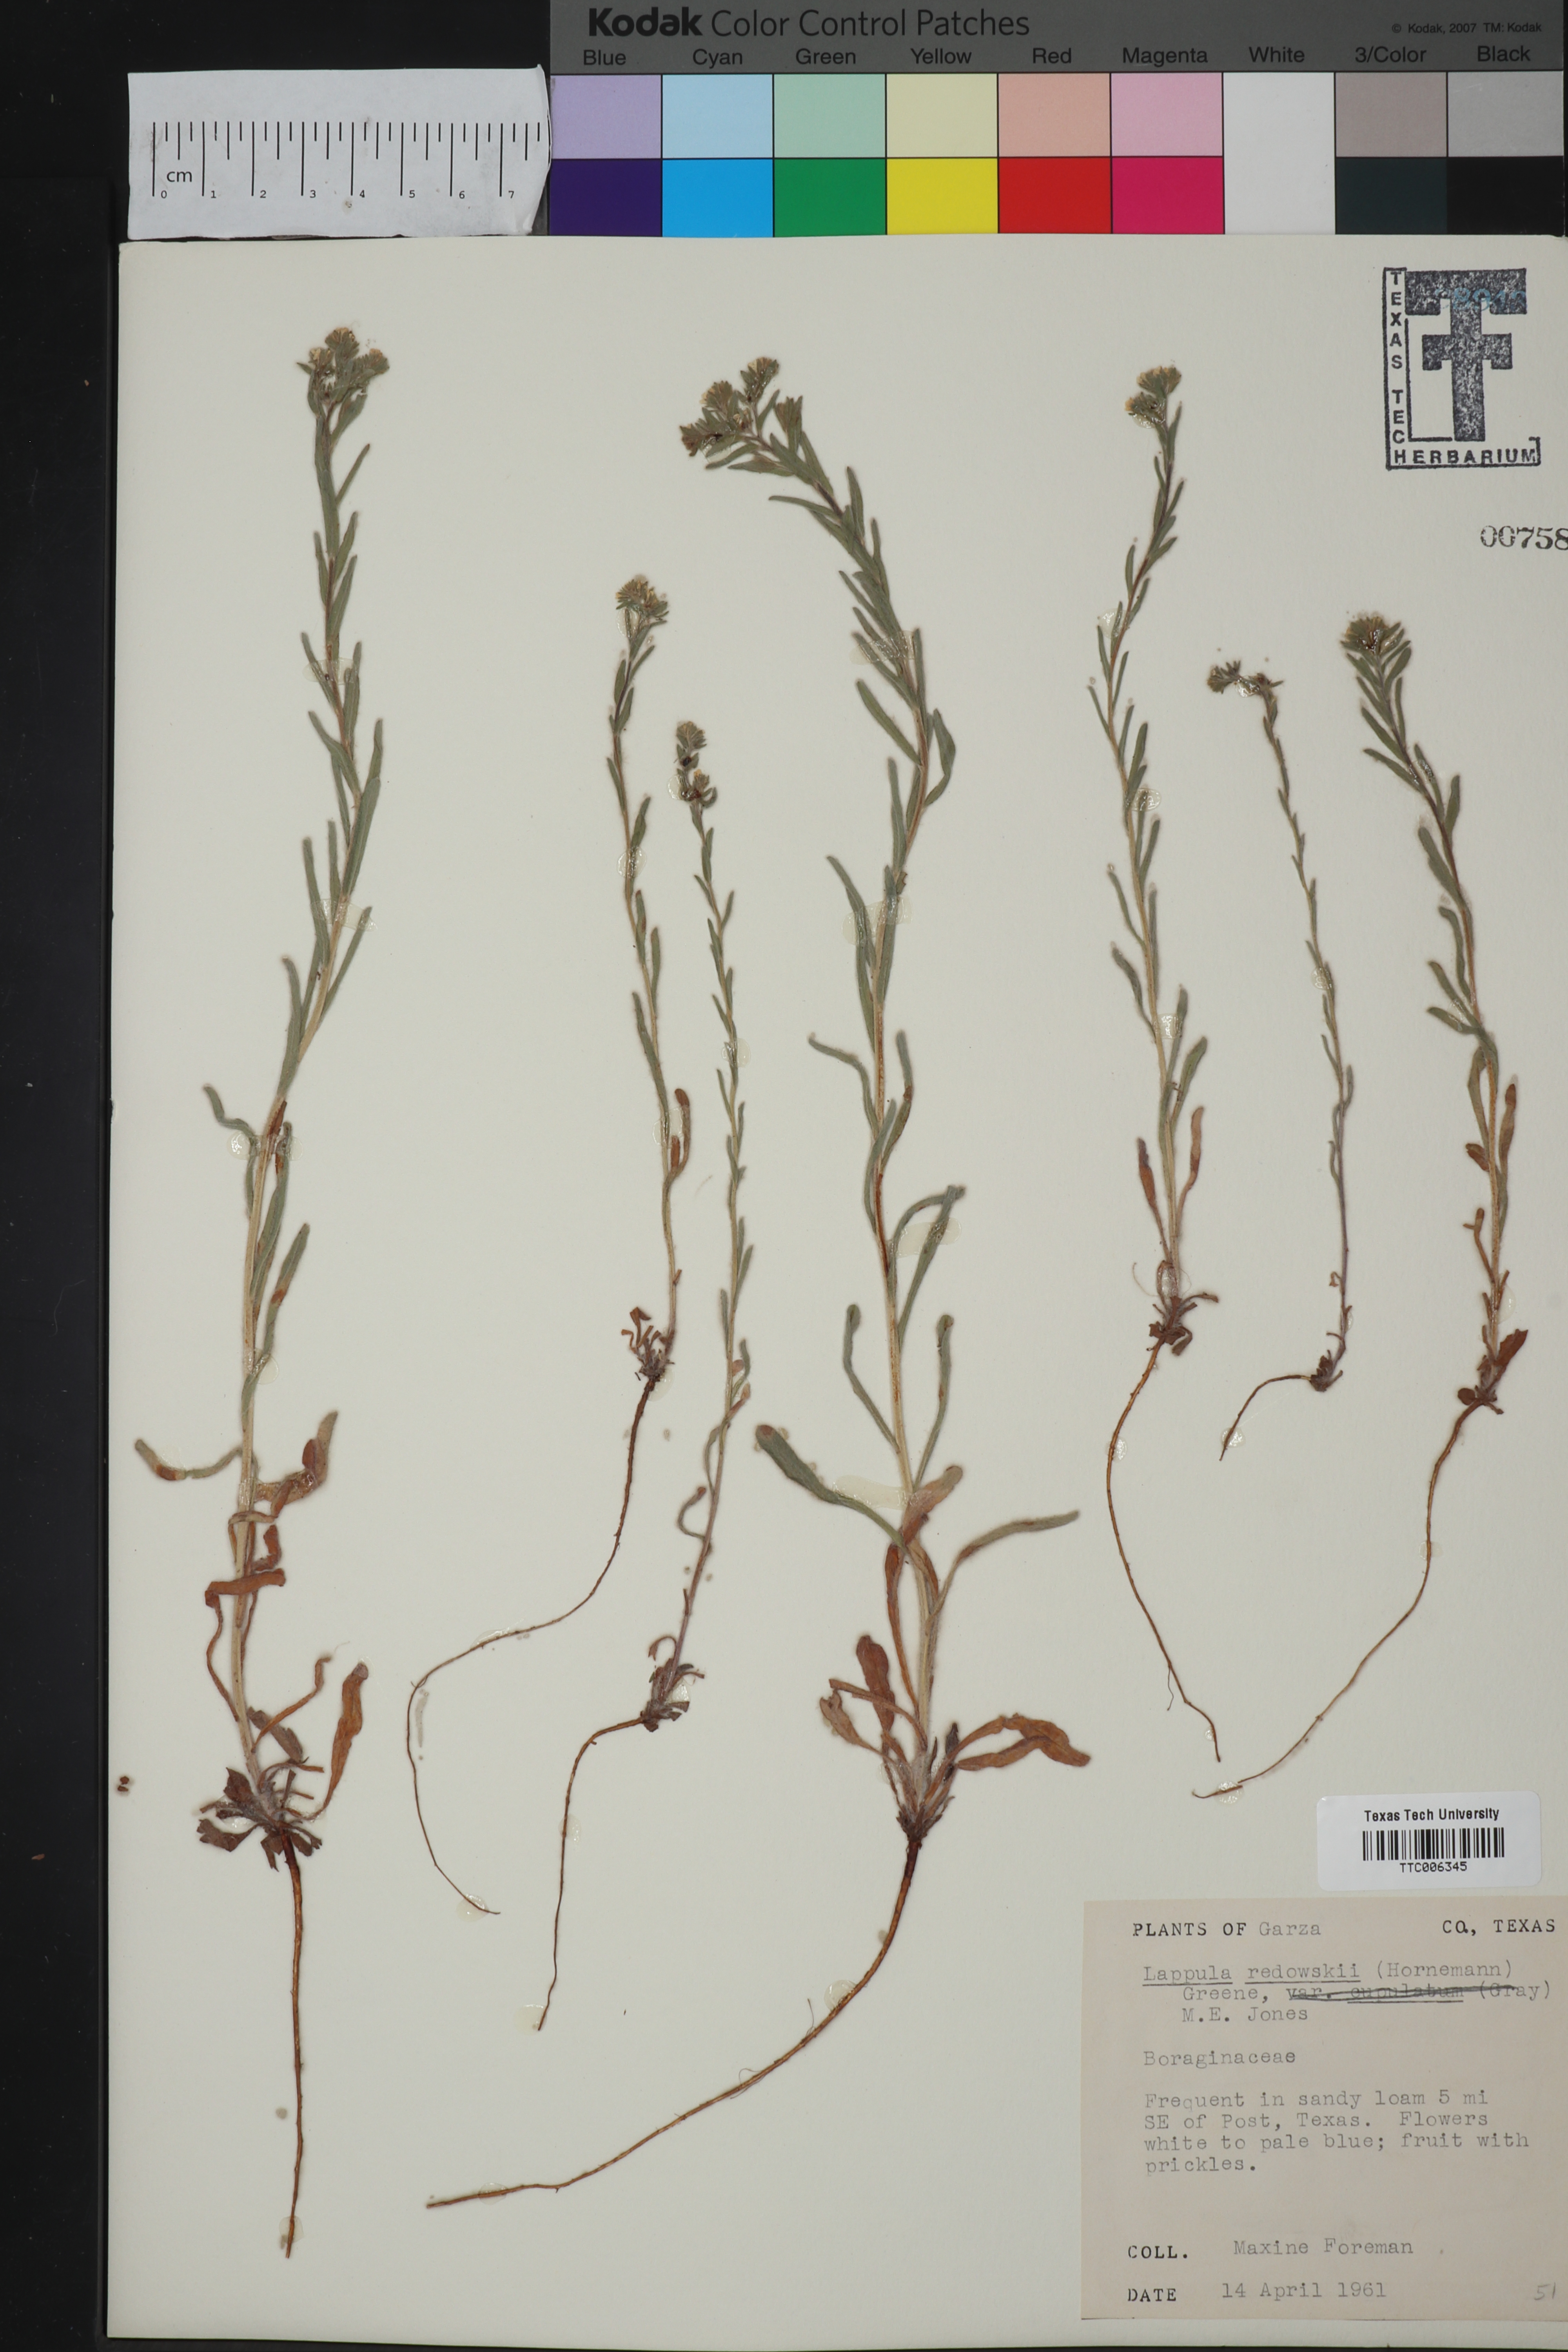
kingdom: Plantae
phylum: Tracheophyta
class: Magnoliopsida
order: Boraginales
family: Boraginaceae
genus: Lappula
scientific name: Lappula redowskii
